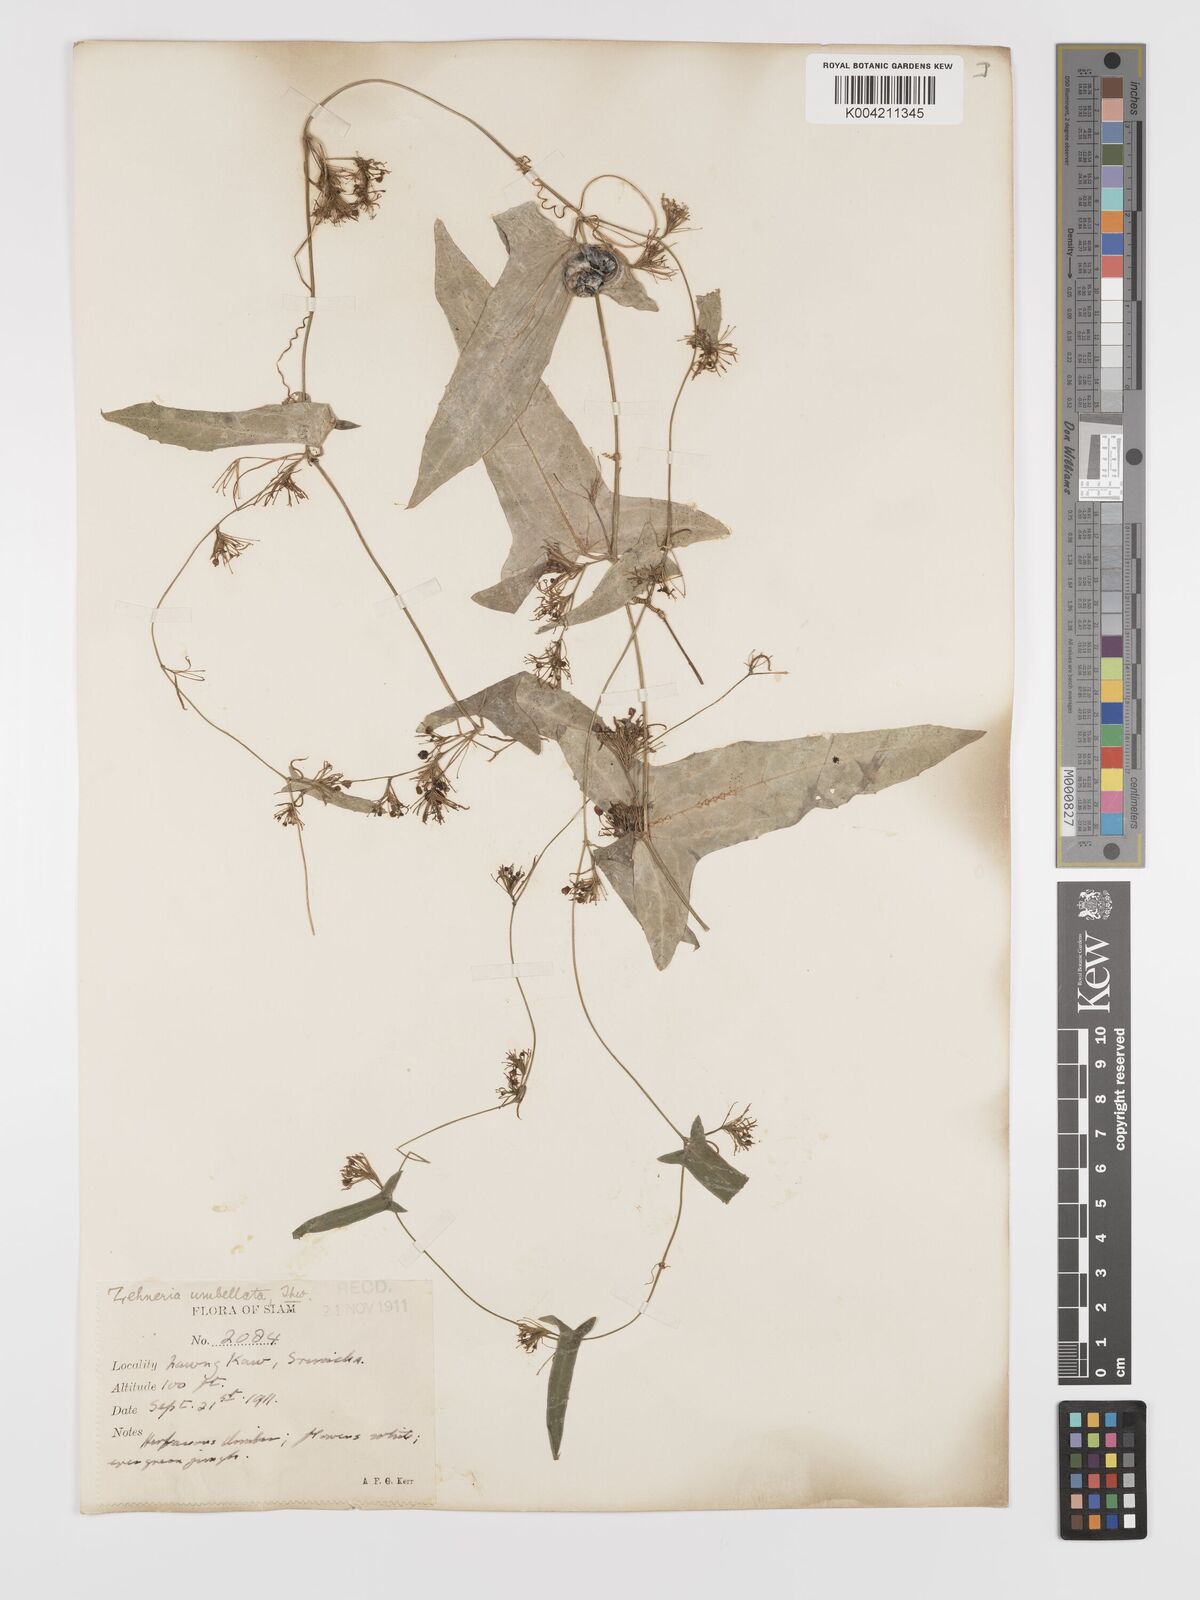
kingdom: Plantae
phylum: Tracheophyta
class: Magnoliopsida
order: Cucurbitales
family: Cucurbitaceae
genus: Solena
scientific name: Solena amplexicaulis
